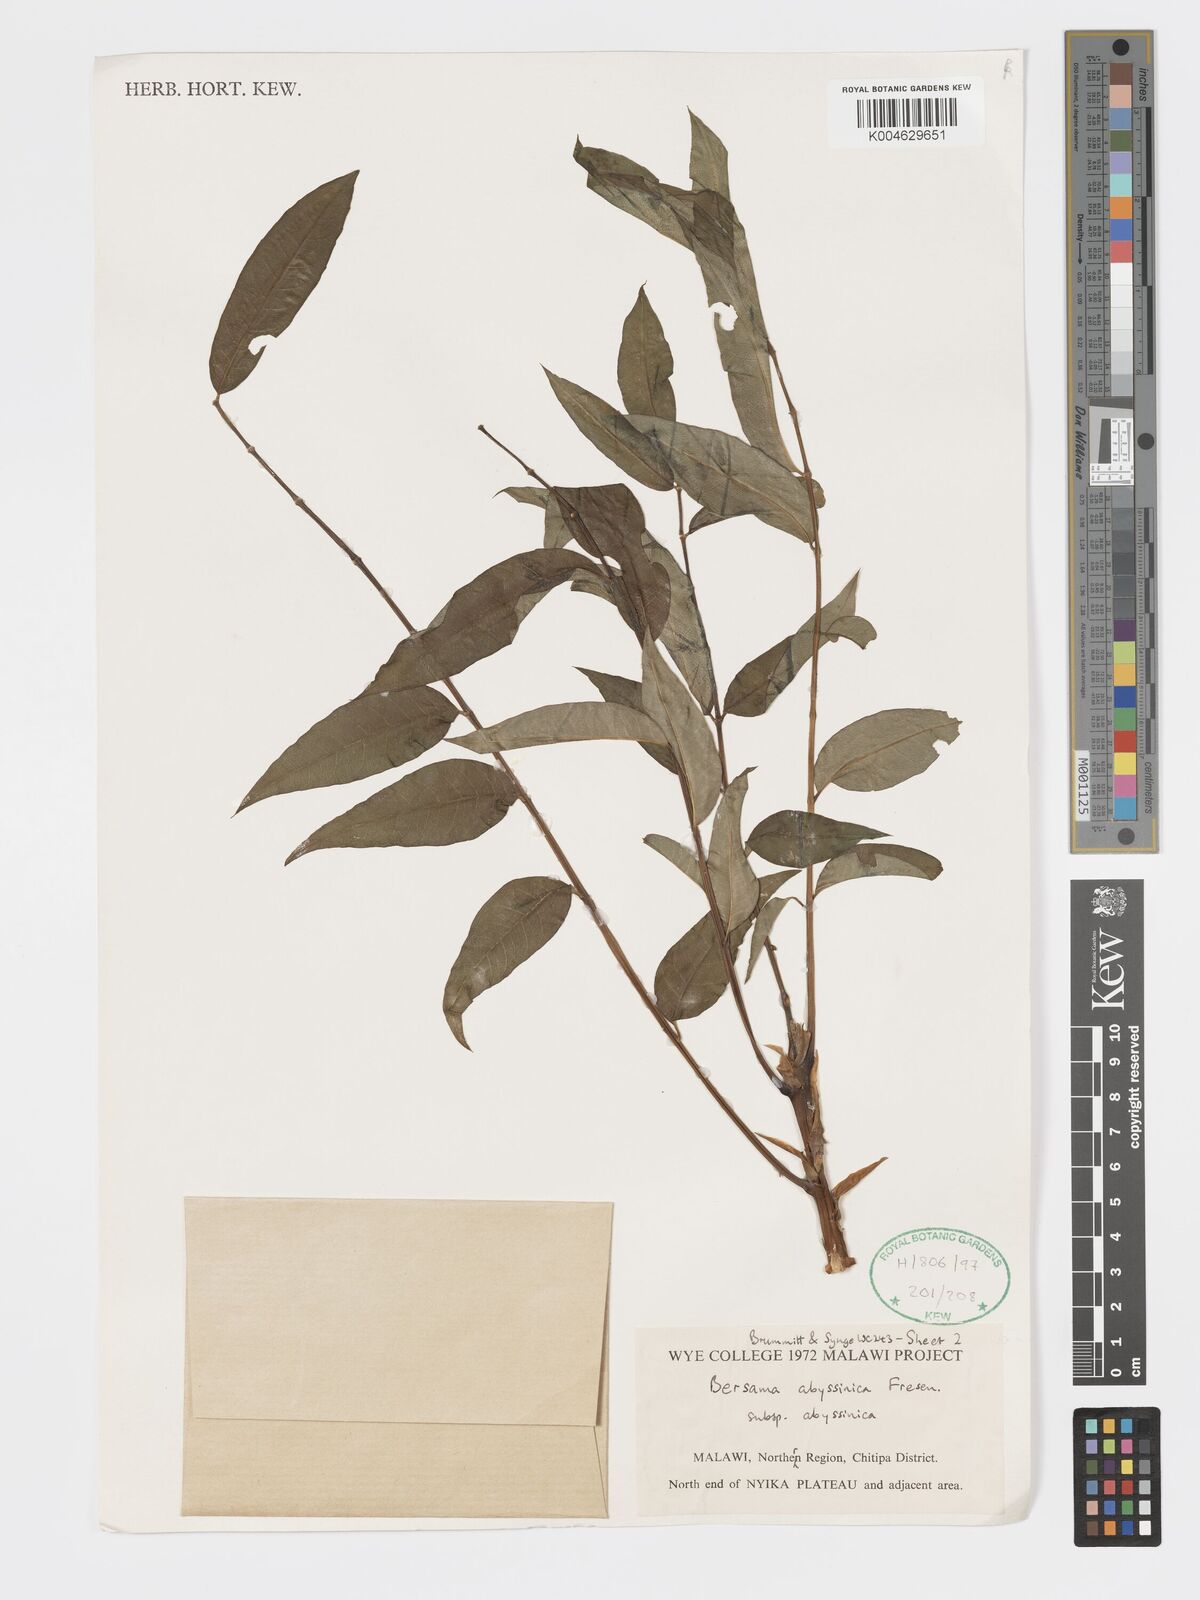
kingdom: Plantae
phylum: Tracheophyta
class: Magnoliopsida
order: Geraniales
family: Francoaceae
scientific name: Francoaceae
